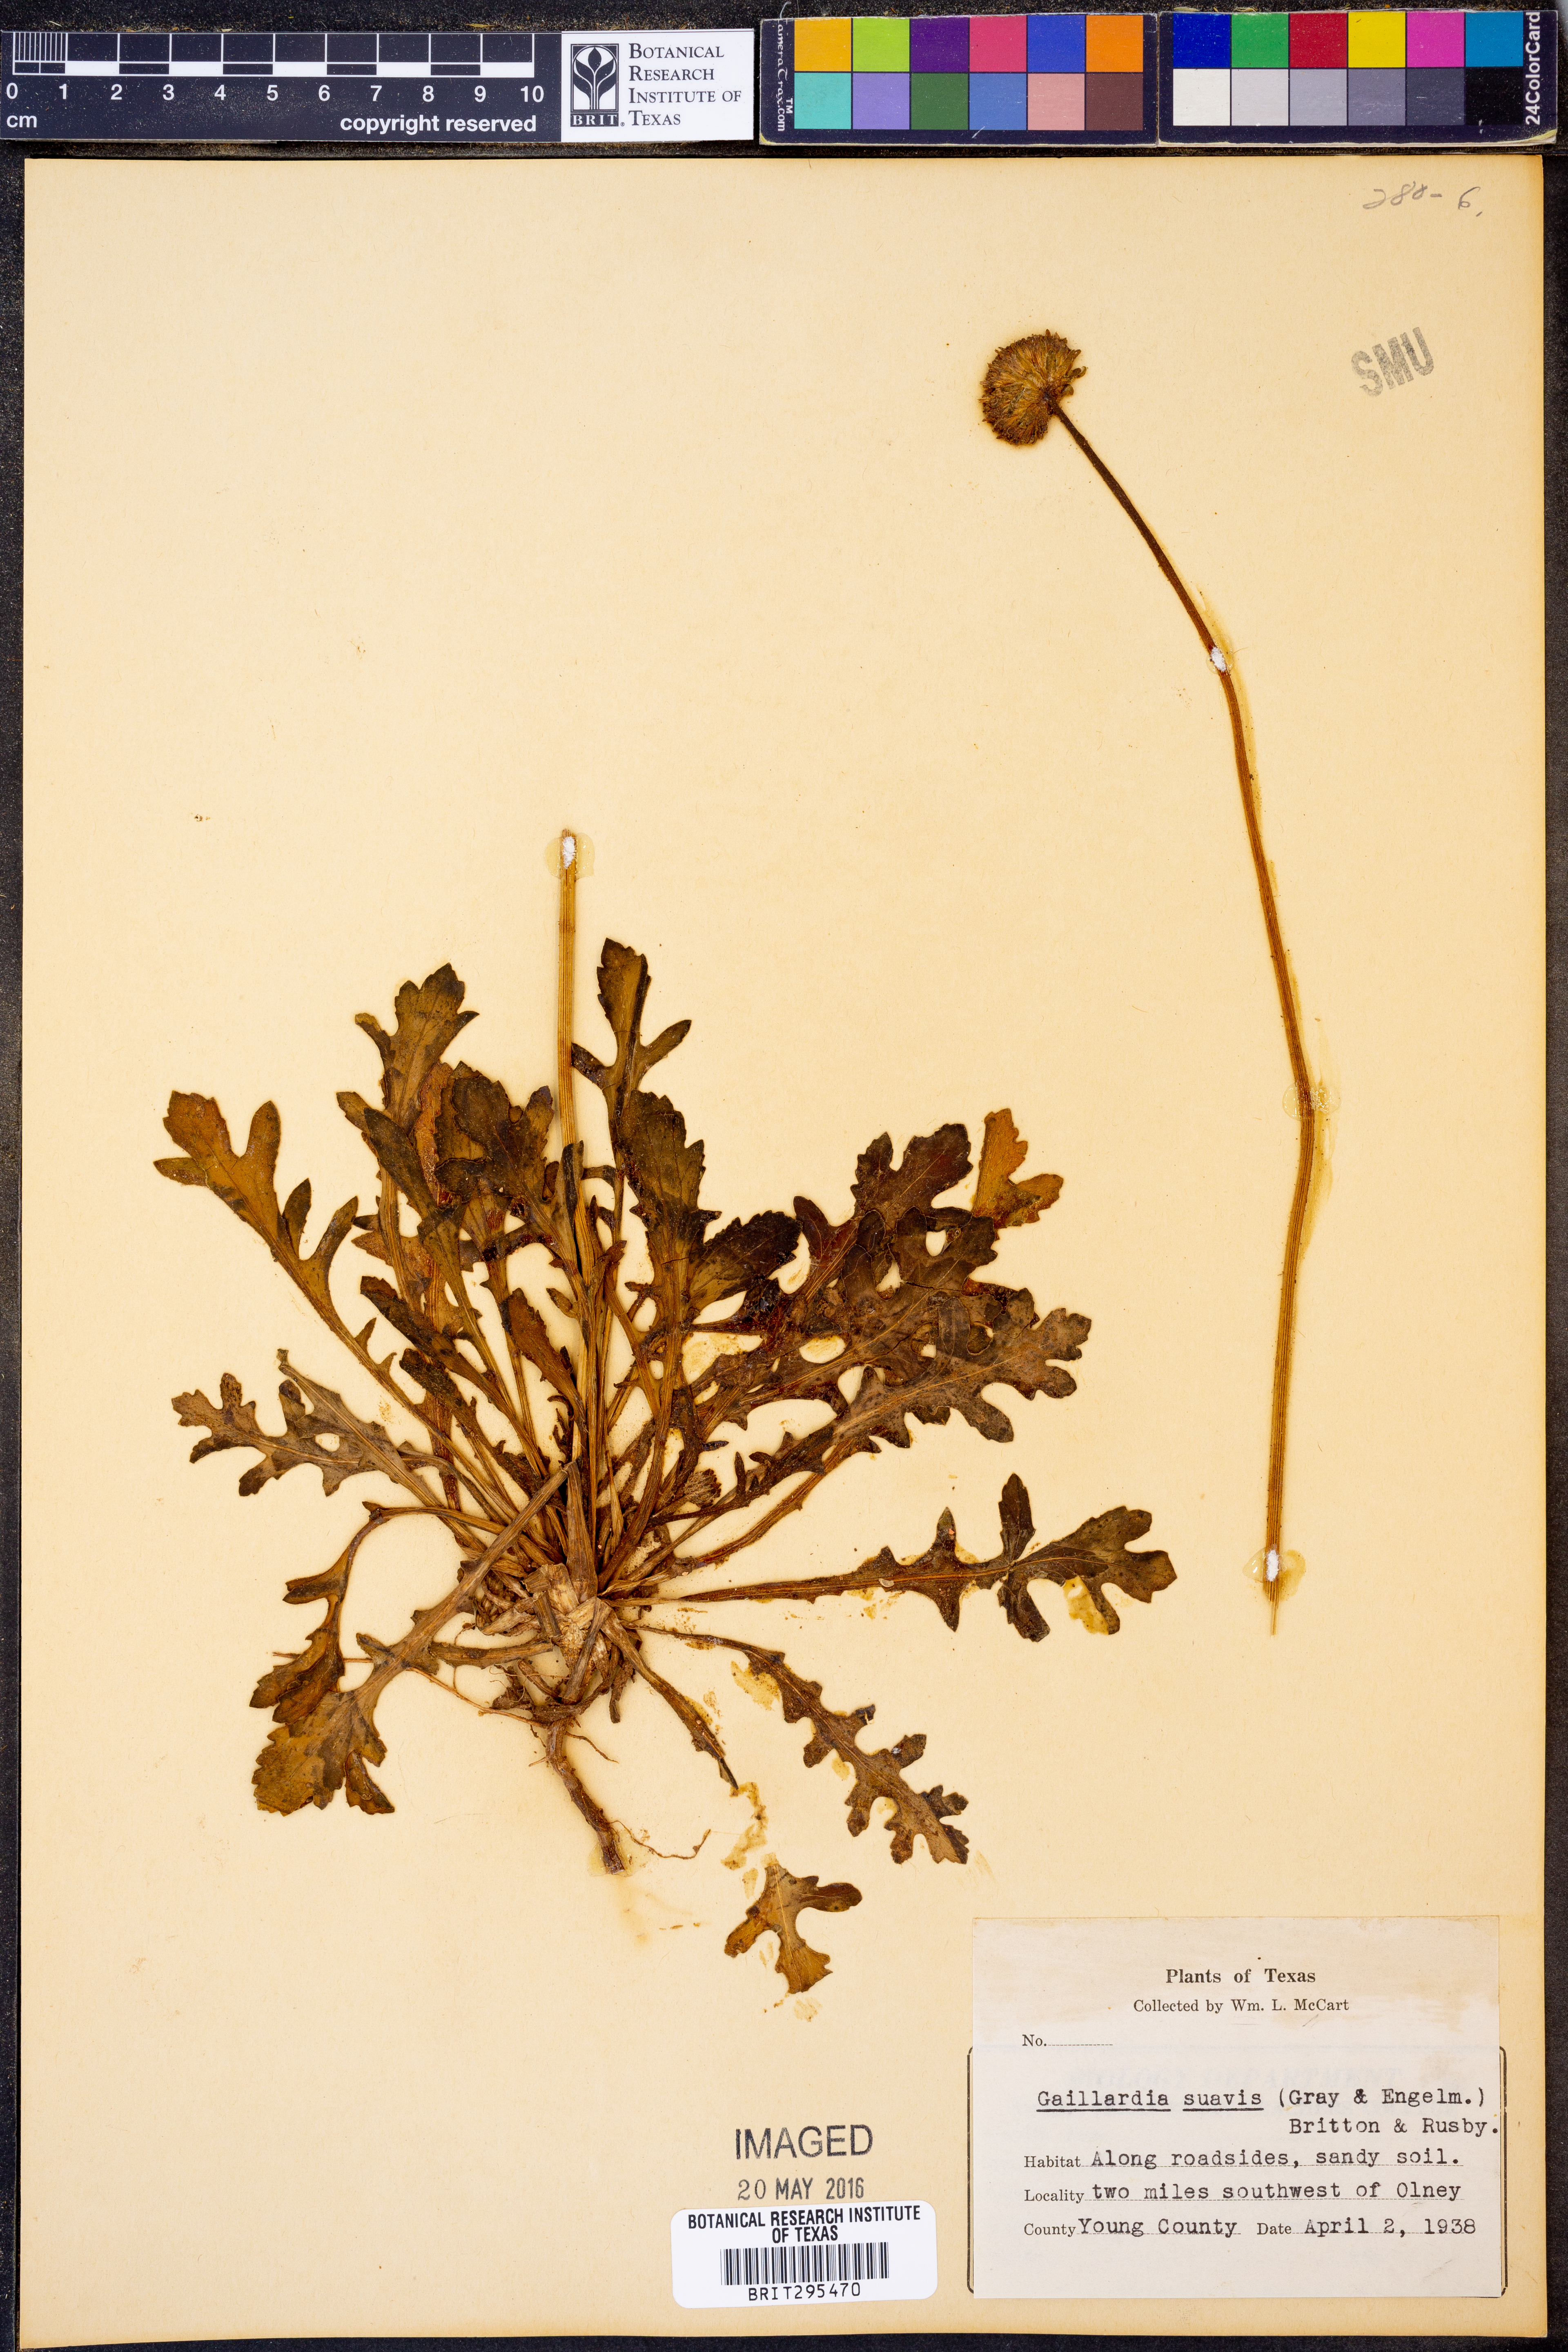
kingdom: Plantae
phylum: Tracheophyta
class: Magnoliopsida
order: Asterales
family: Asteraceae
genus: Gaillardia
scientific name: Gaillardia suavis
